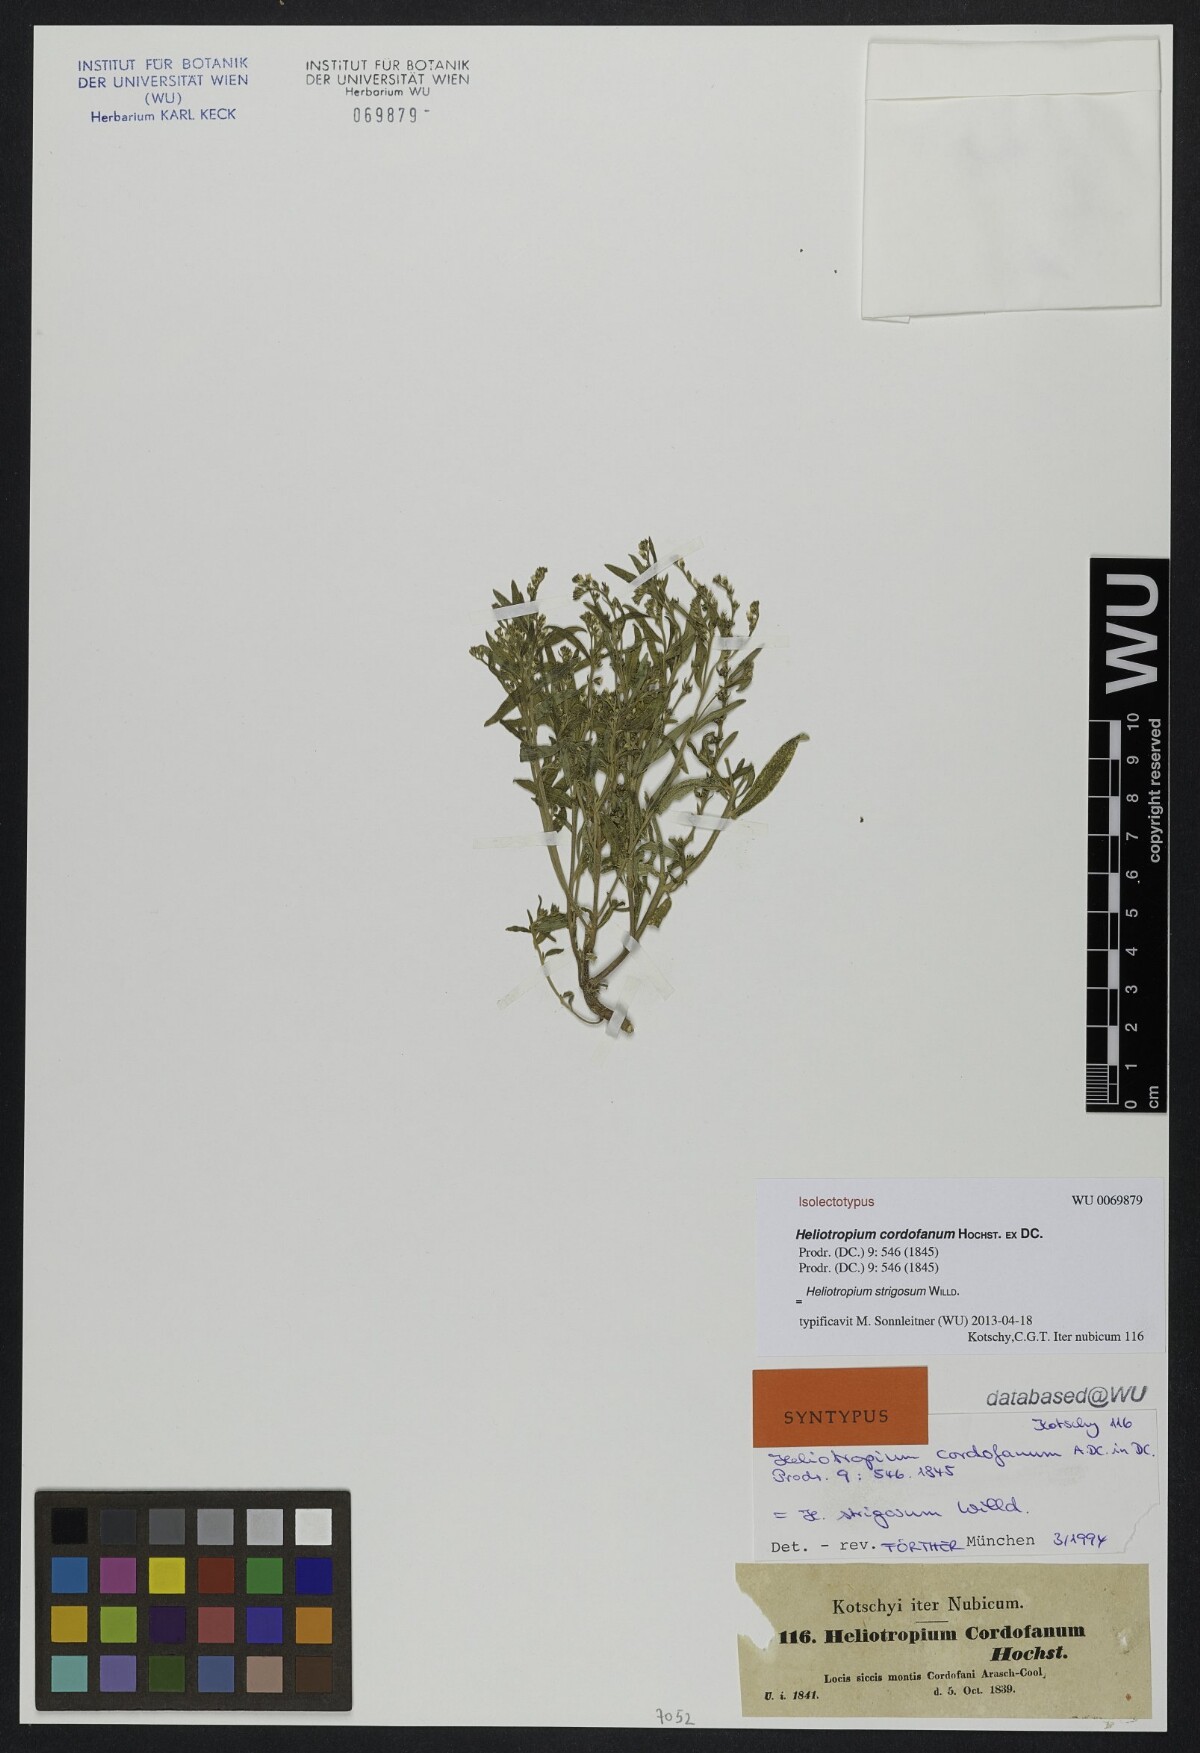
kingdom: Plantae
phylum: Tracheophyta
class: Magnoliopsida
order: Boraginales
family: Heliotropiaceae
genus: Euploca
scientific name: Euploca strigosa
